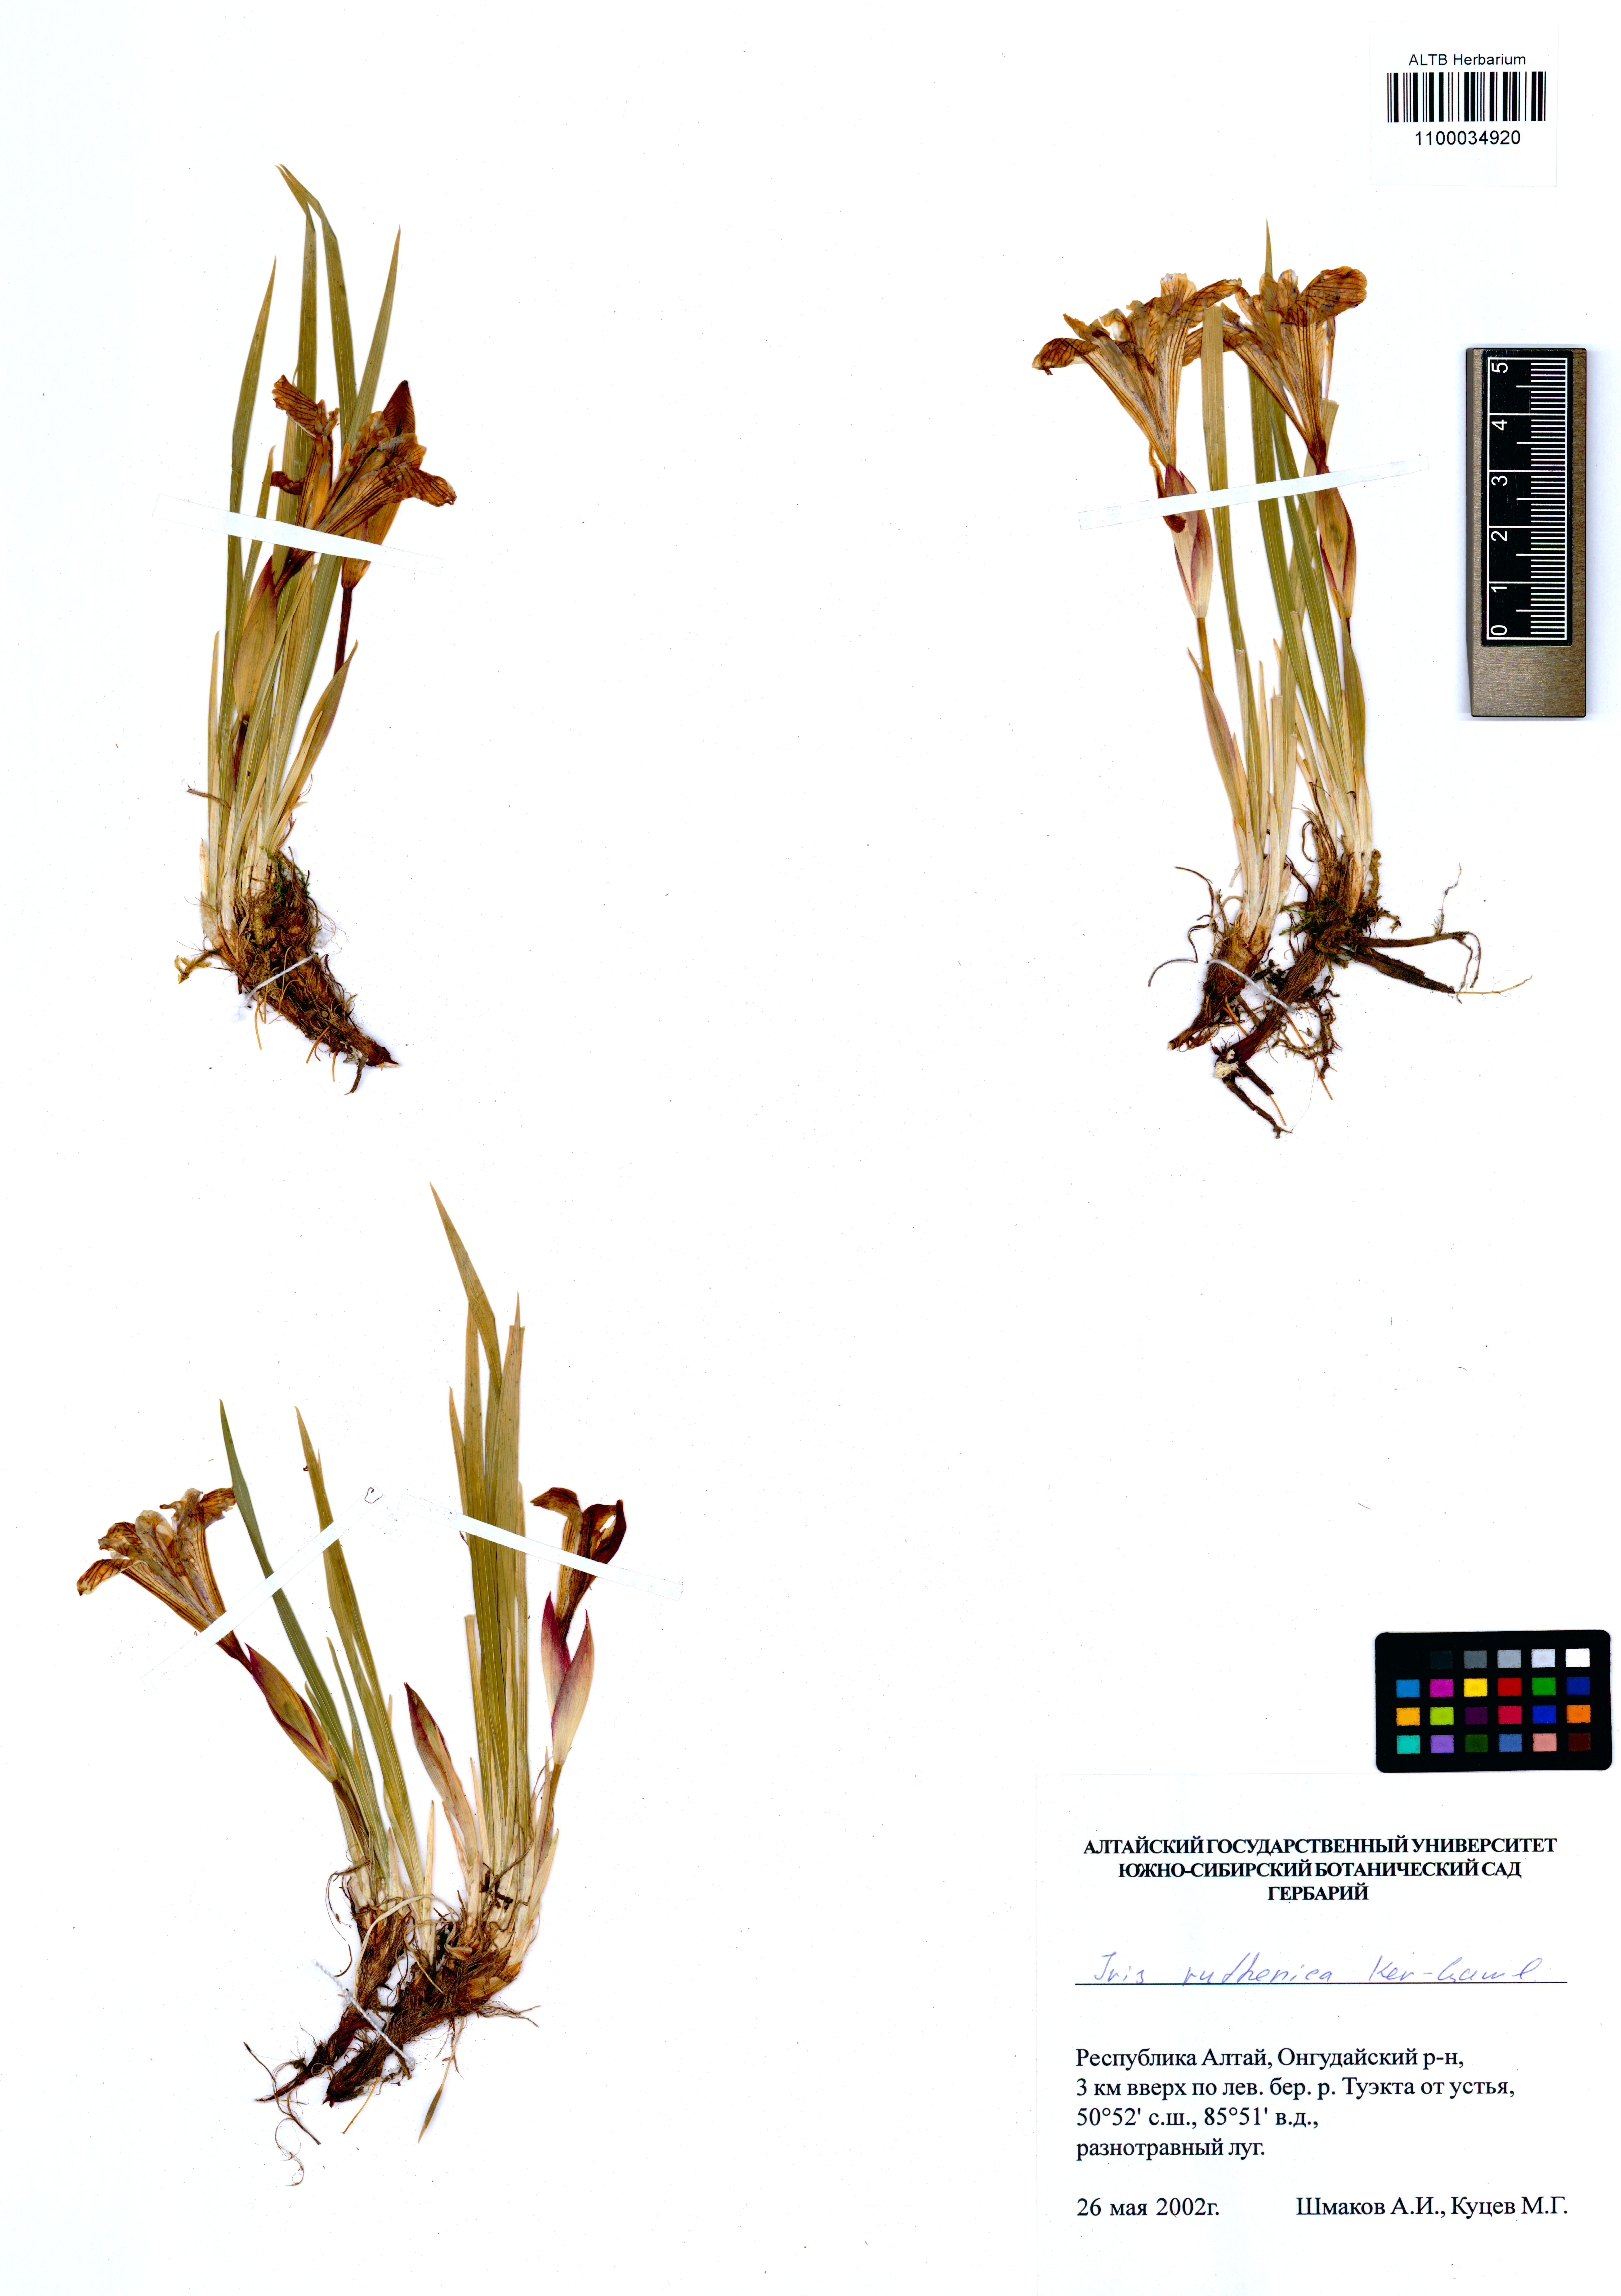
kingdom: Plantae
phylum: Tracheophyta
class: Liliopsida
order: Asparagales
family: Iridaceae
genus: Iris
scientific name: Iris ruthenica
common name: Purple-bract iris
